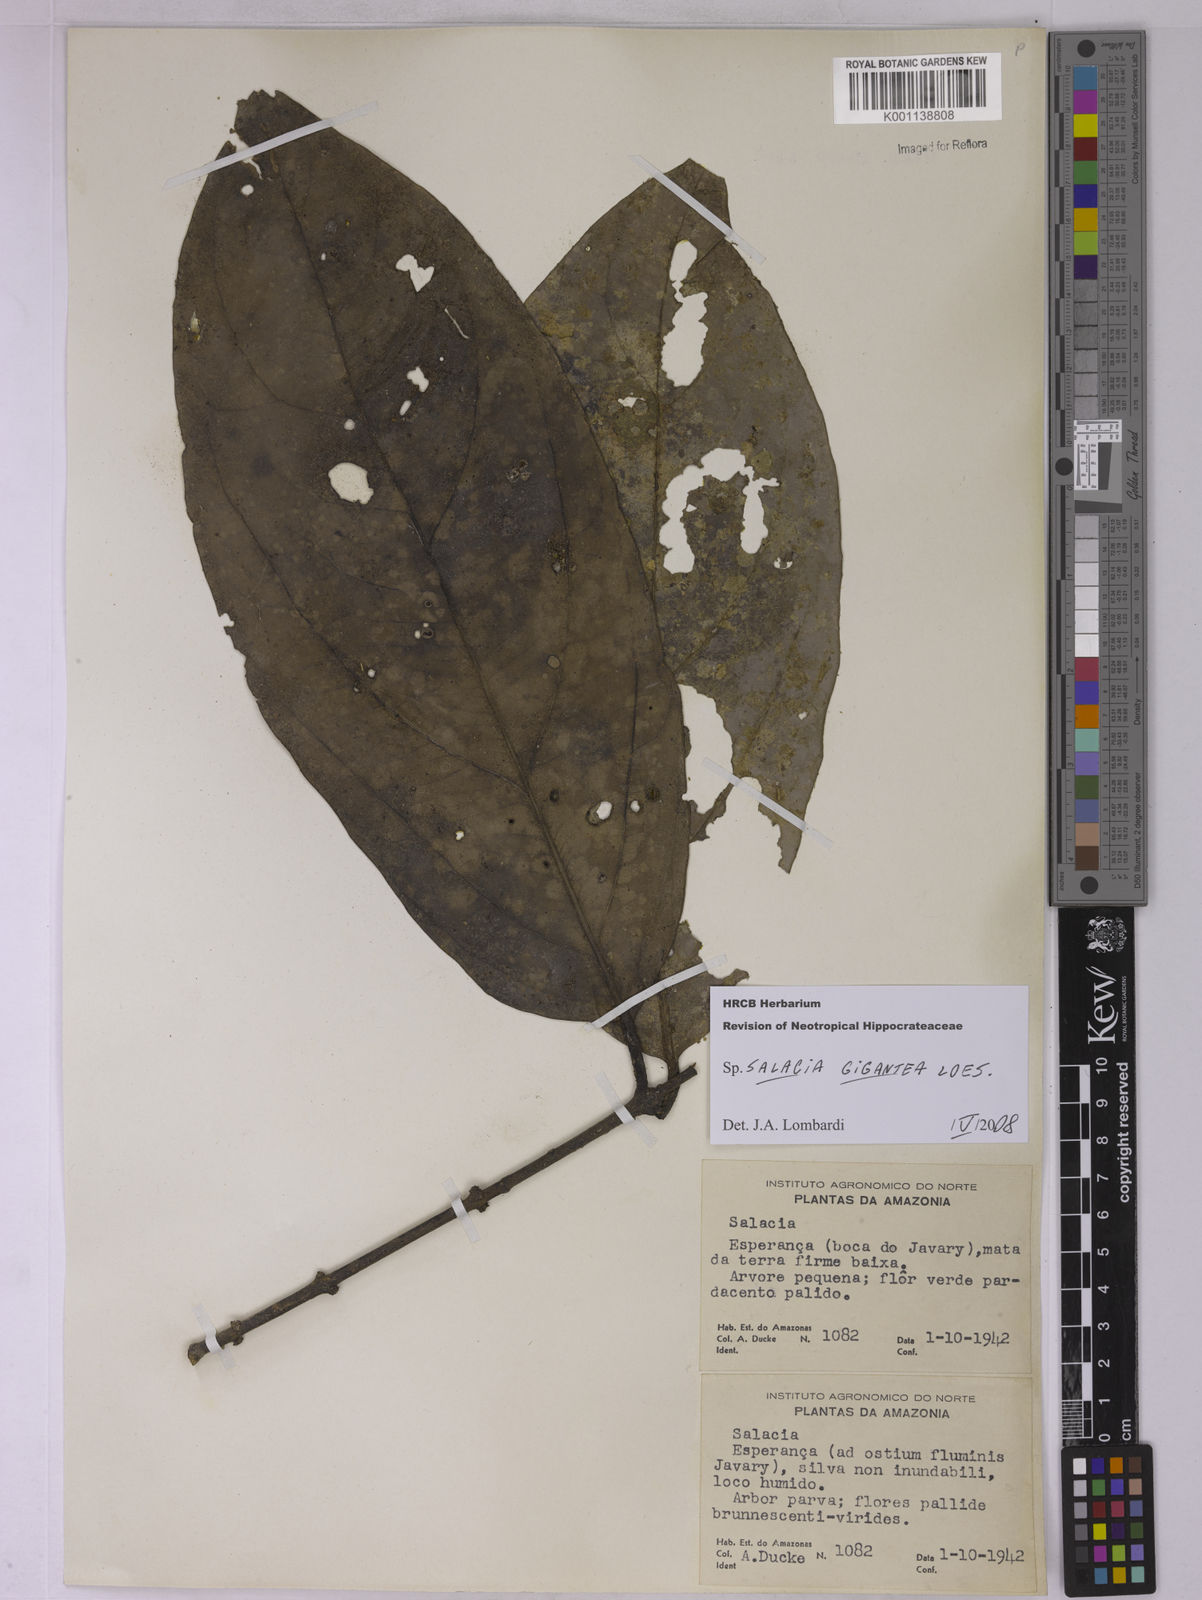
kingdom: Plantae
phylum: Tracheophyta
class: Magnoliopsida
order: Celastrales
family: Celastraceae
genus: Salacia
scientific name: Salacia gigantea
